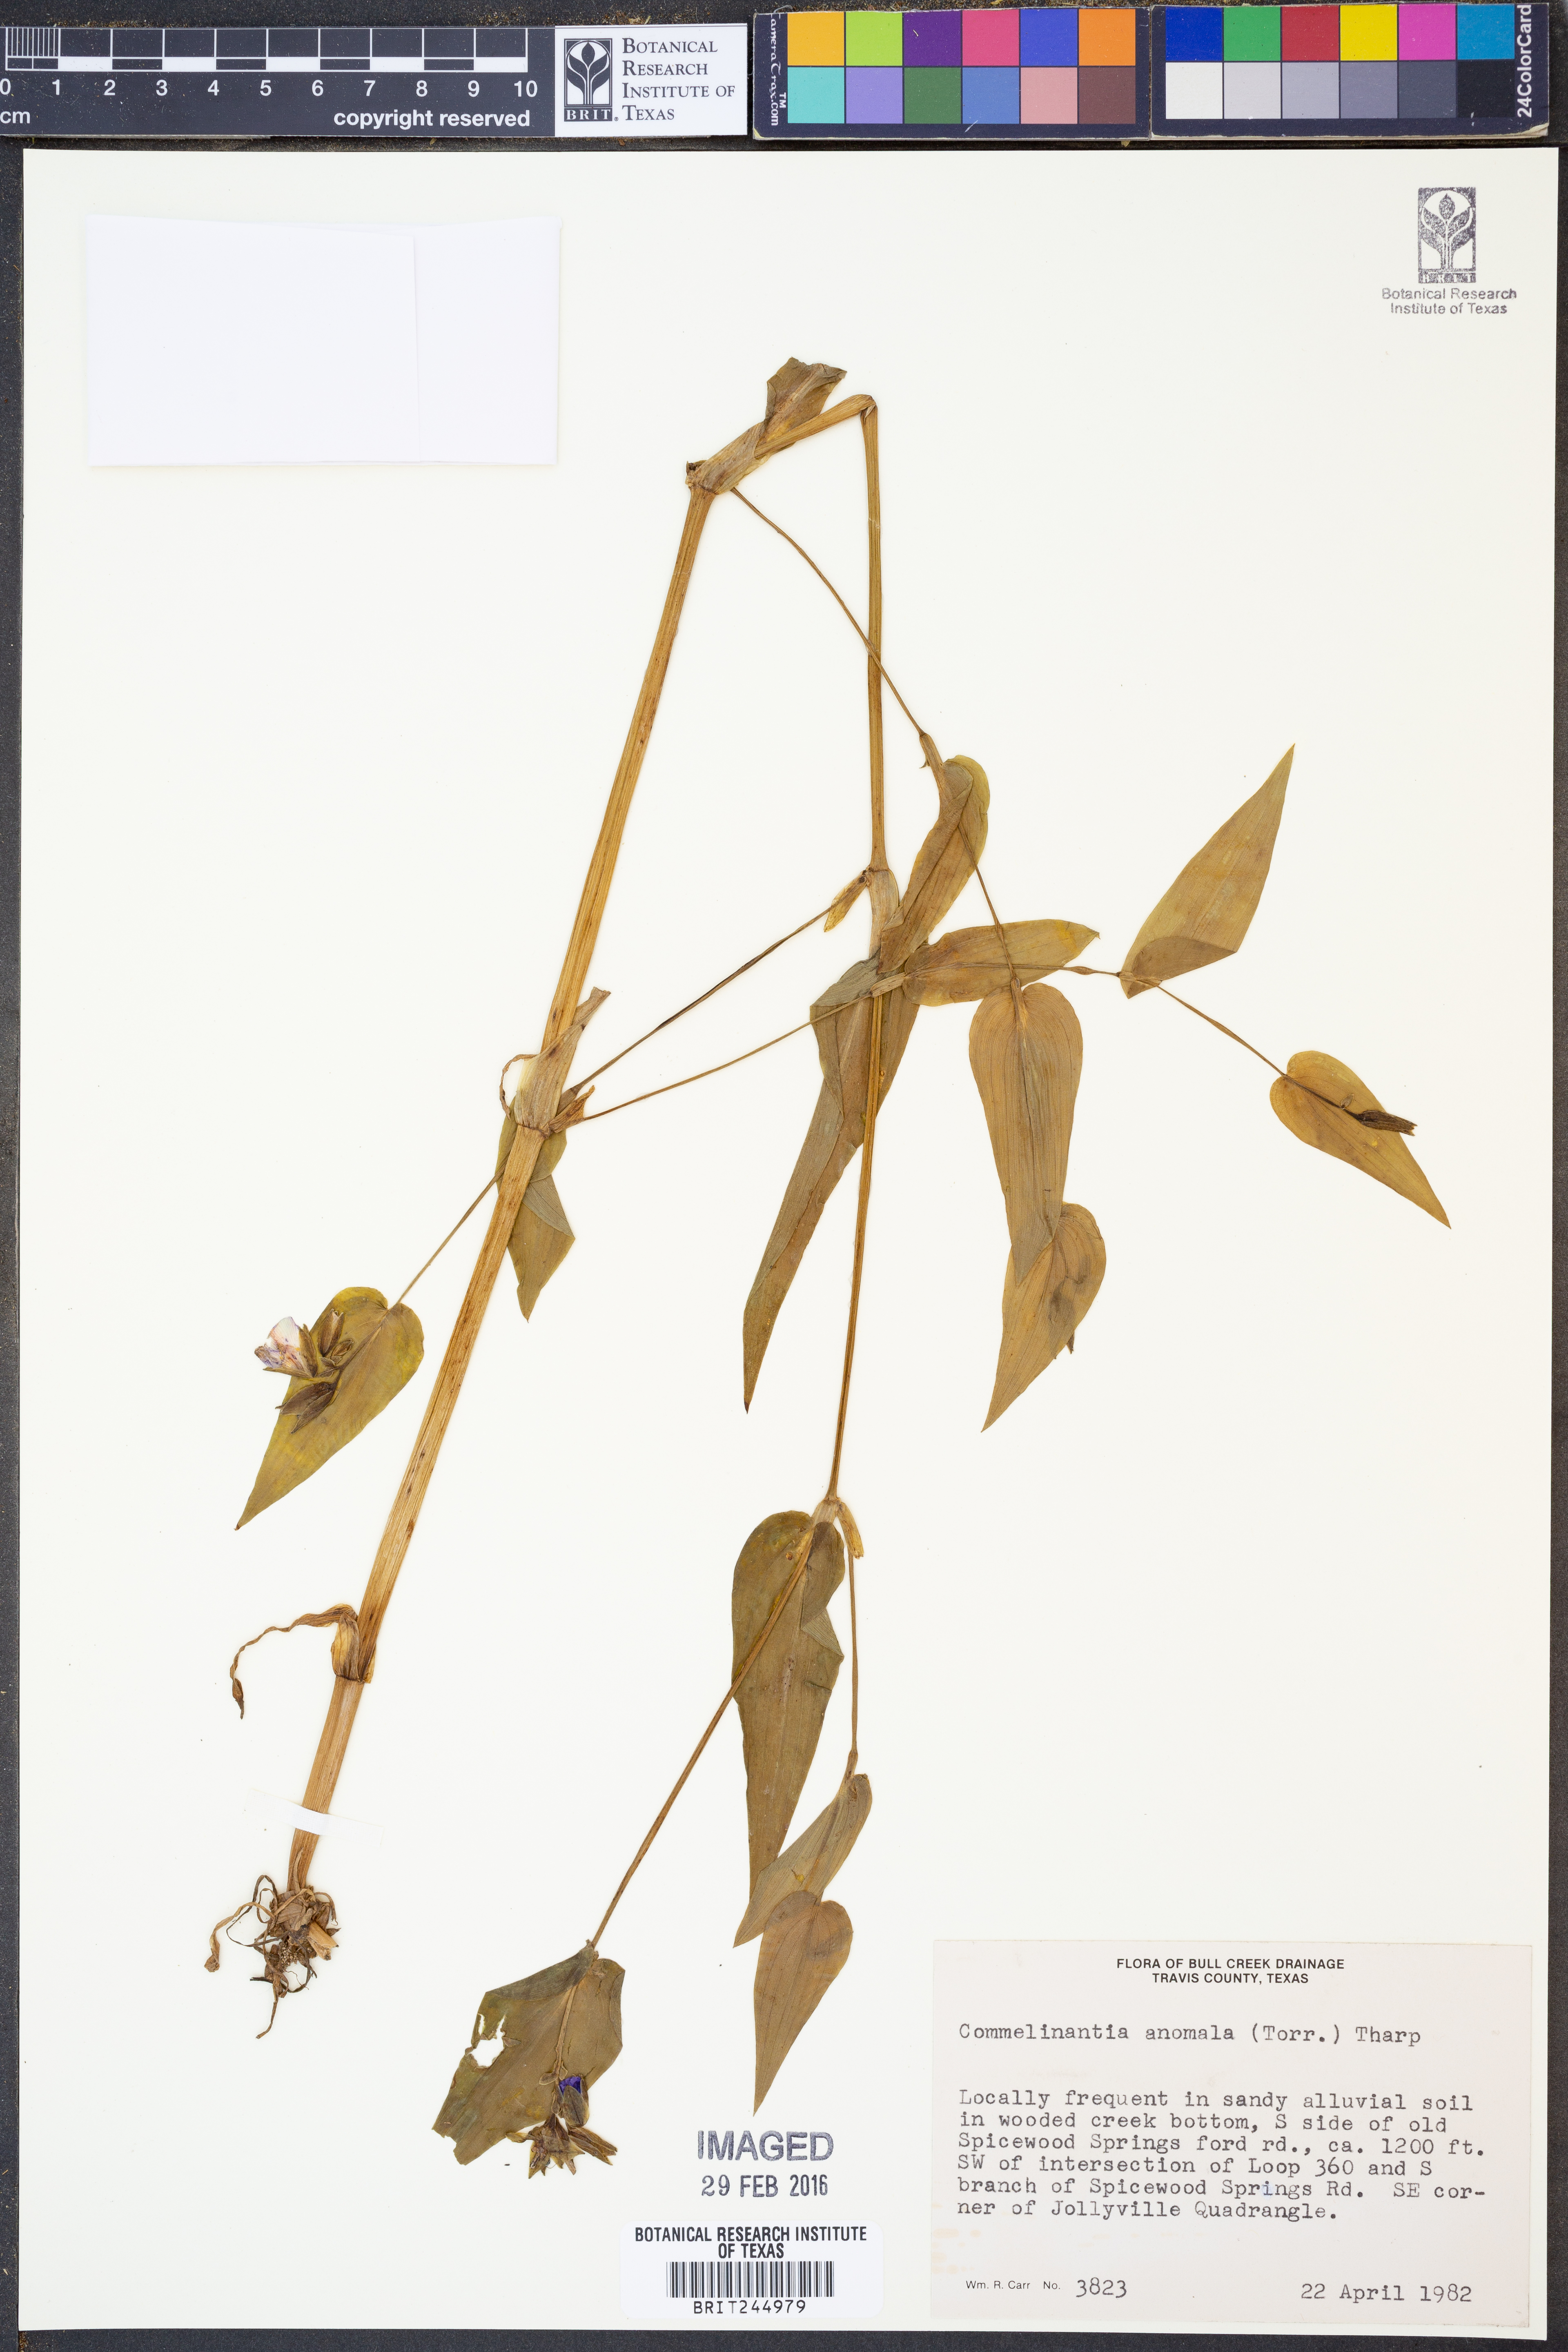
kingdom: Plantae
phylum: Tracheophyta
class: Liliopsida
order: Commelinales
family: Commelinaceae
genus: Tinantia
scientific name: Tinantia anomala
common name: False dayflower
